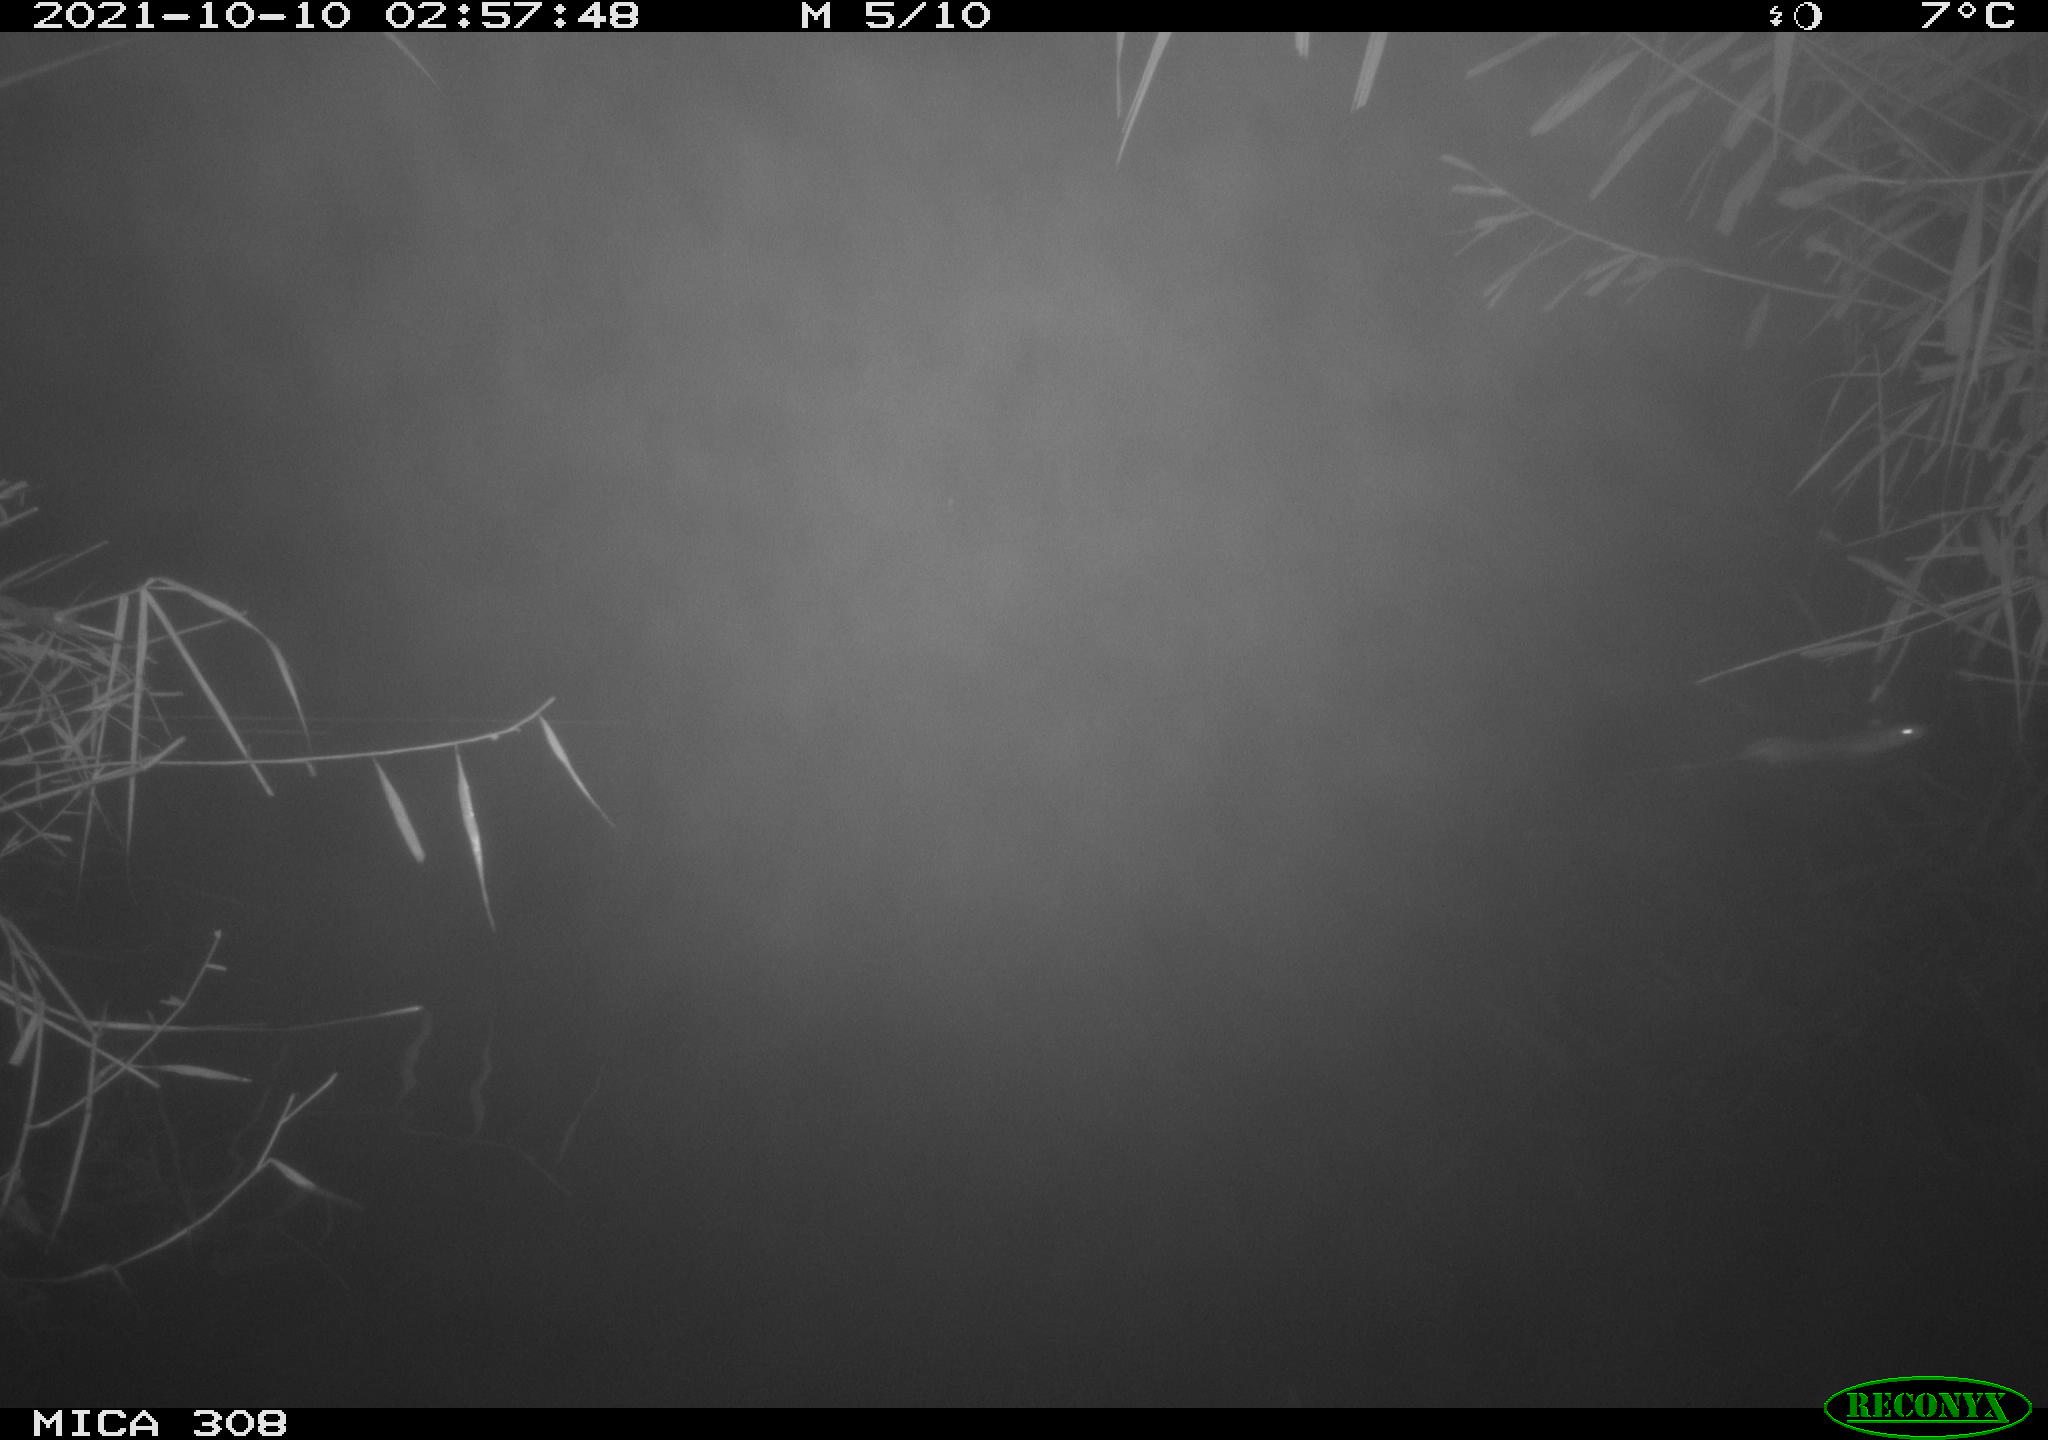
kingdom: Animalia
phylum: Chordata
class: Mammalia
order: Rodentia
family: Muridae
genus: Rattus
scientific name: Rattus norvegicus
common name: Brown rat
